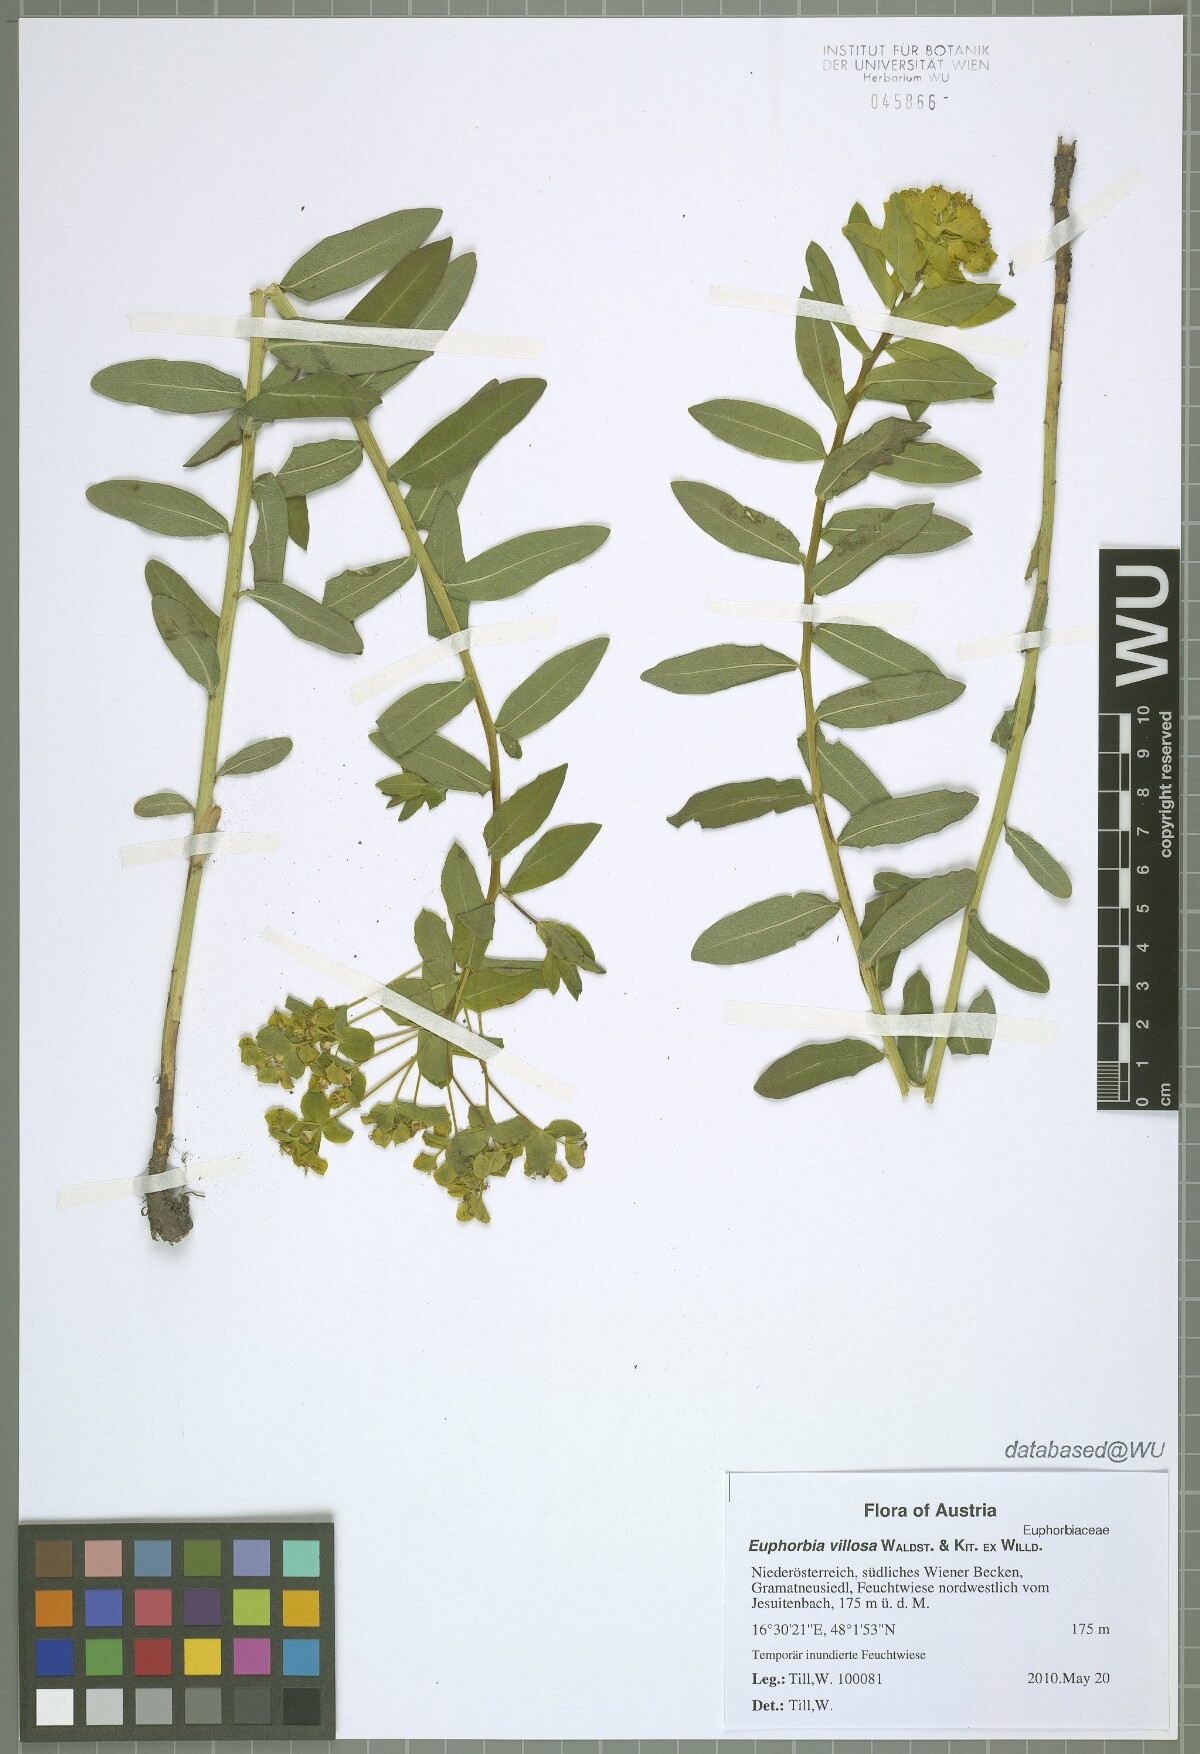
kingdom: Plantae
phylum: Tracheophyta
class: Magnoliopsida
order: Malpighiales
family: Euphorbiaceae
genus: Euphorbia
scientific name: Euphorbia illirica
